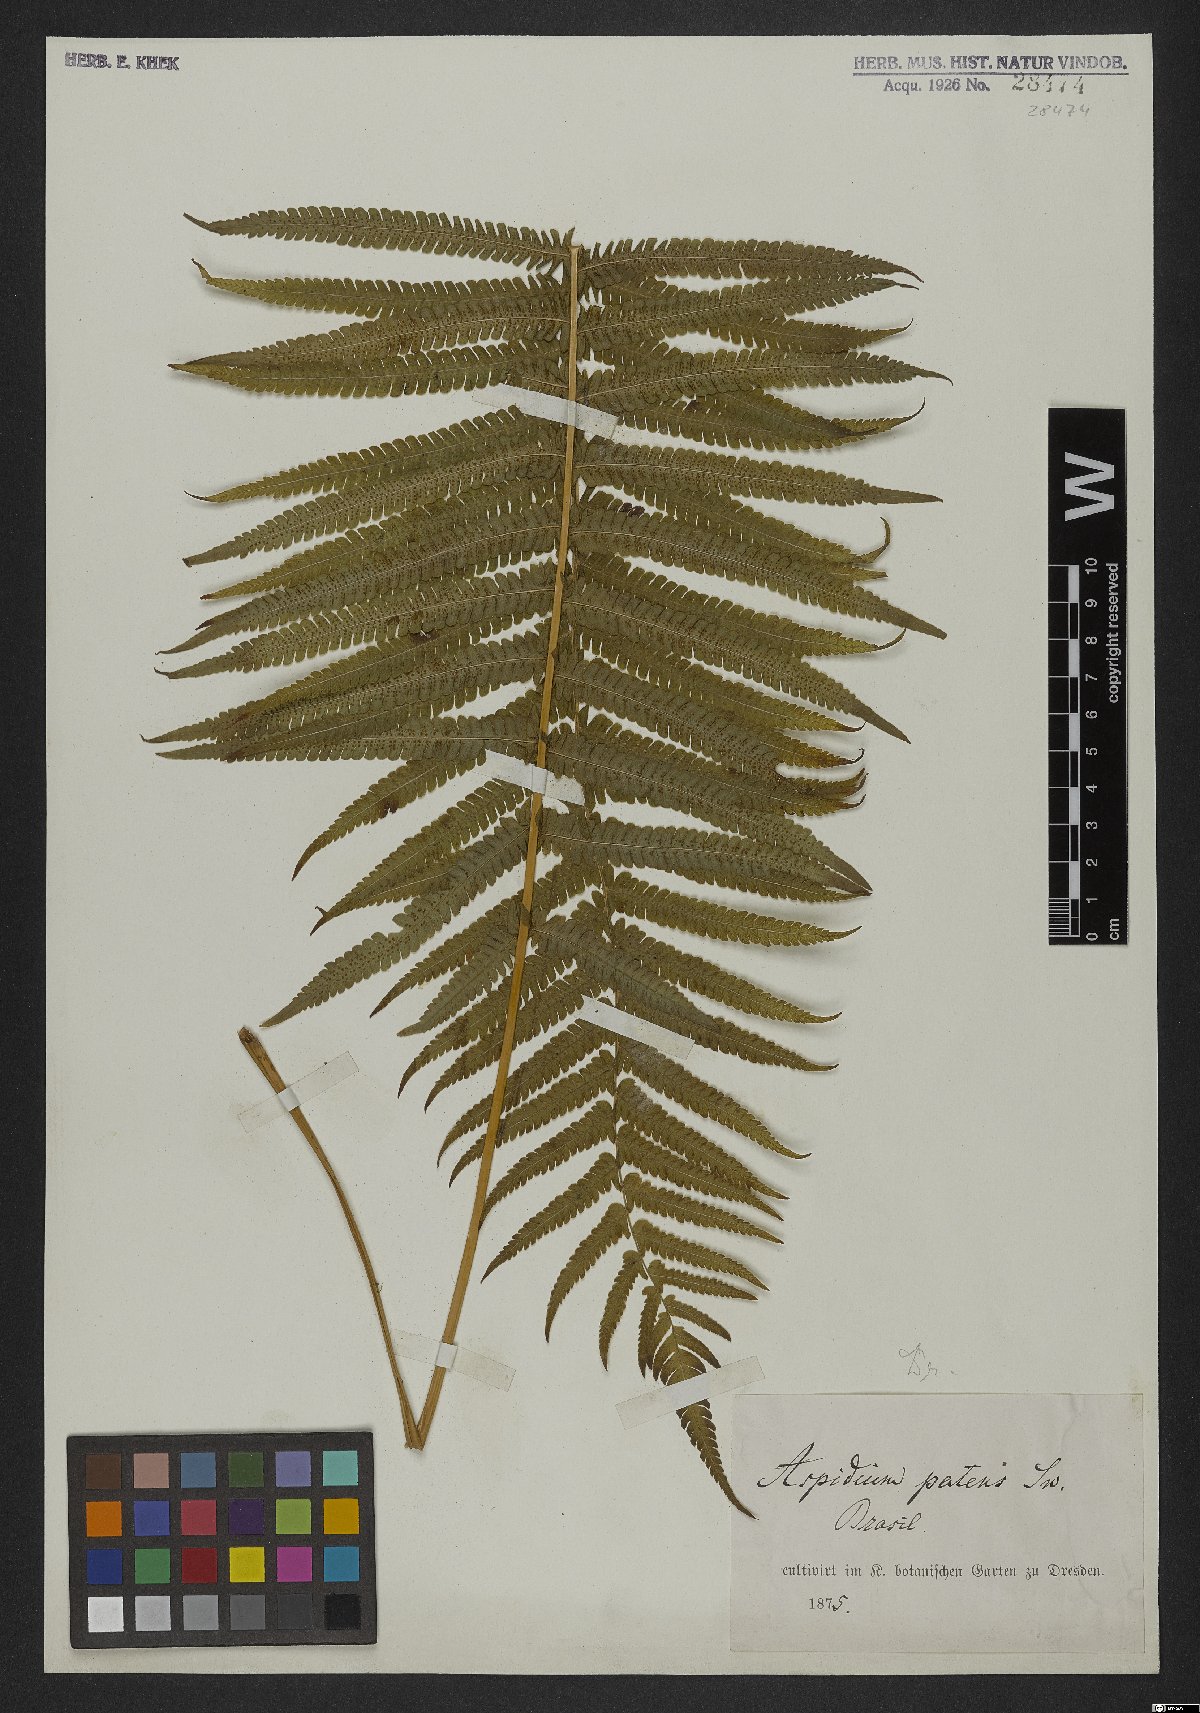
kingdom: Plantae
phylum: Tracheophyta
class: Polypodiopsida
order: Polypodiales
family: Thelypteridaceae
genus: Pelazoneuron
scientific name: Pelazoneuron patens
